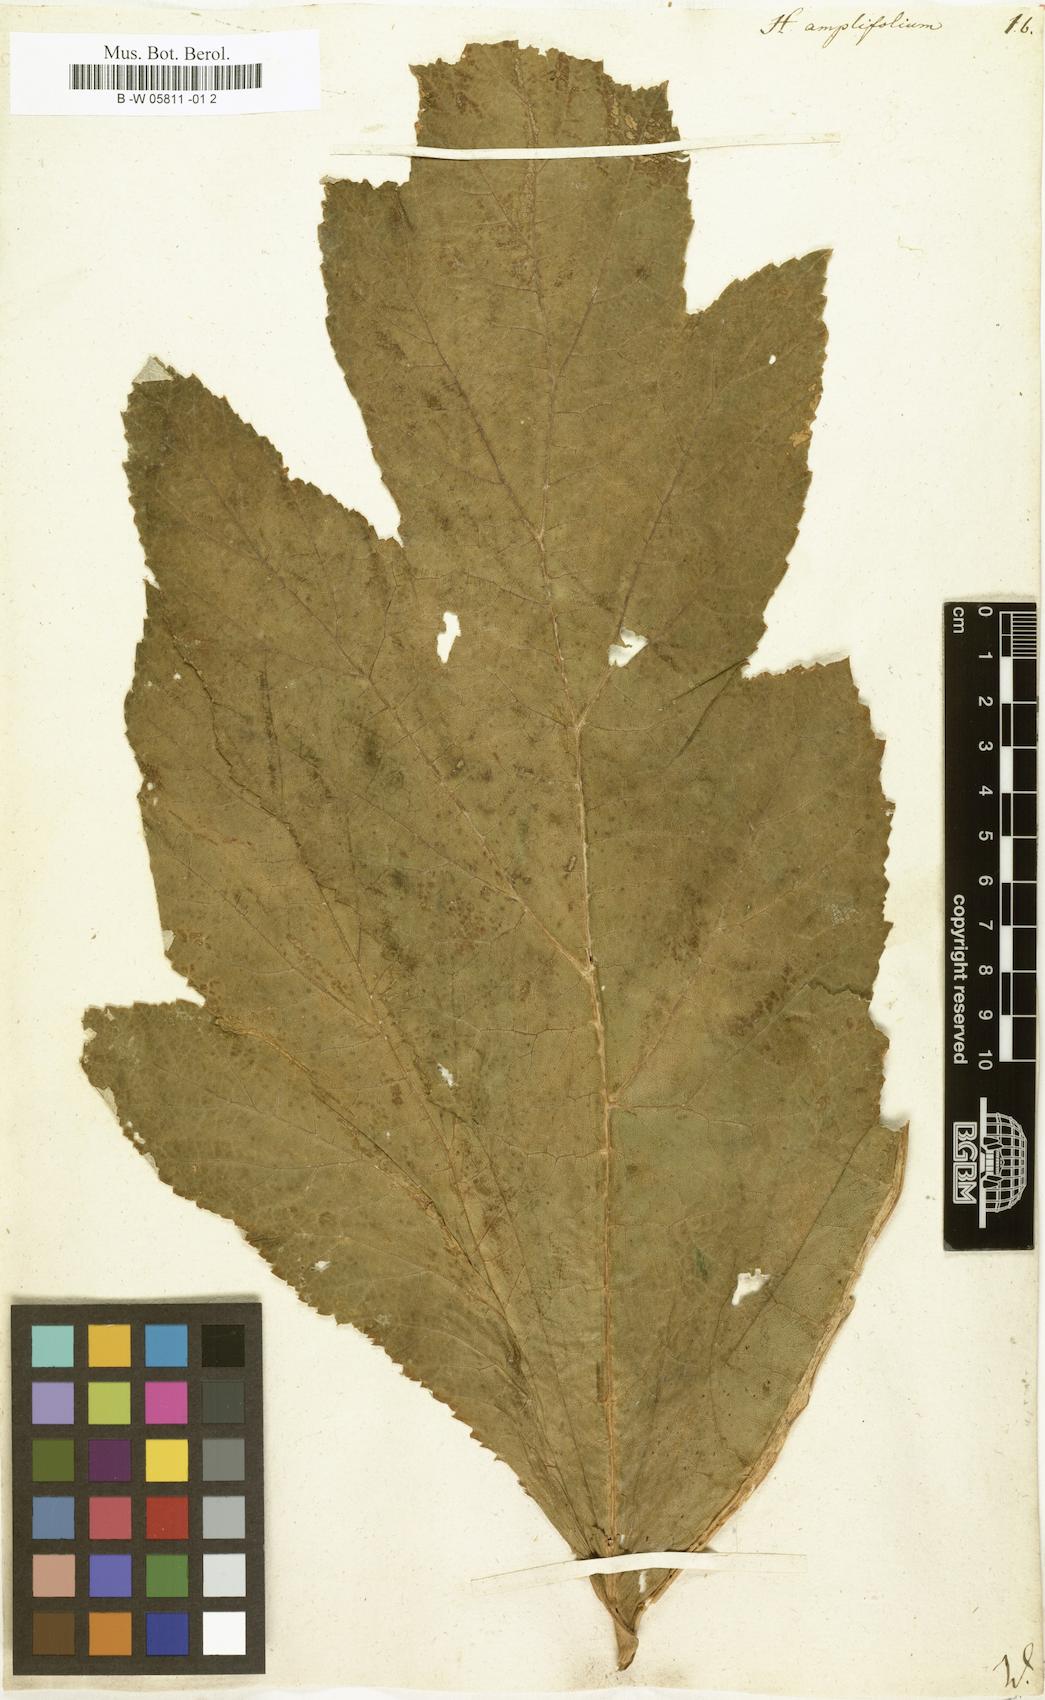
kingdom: Plantae
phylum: Tracheophyta
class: Magnoliopsida
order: Apiales
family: Apiaceae
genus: Heracleum
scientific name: Heracleum sphondylium
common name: Hogweed
